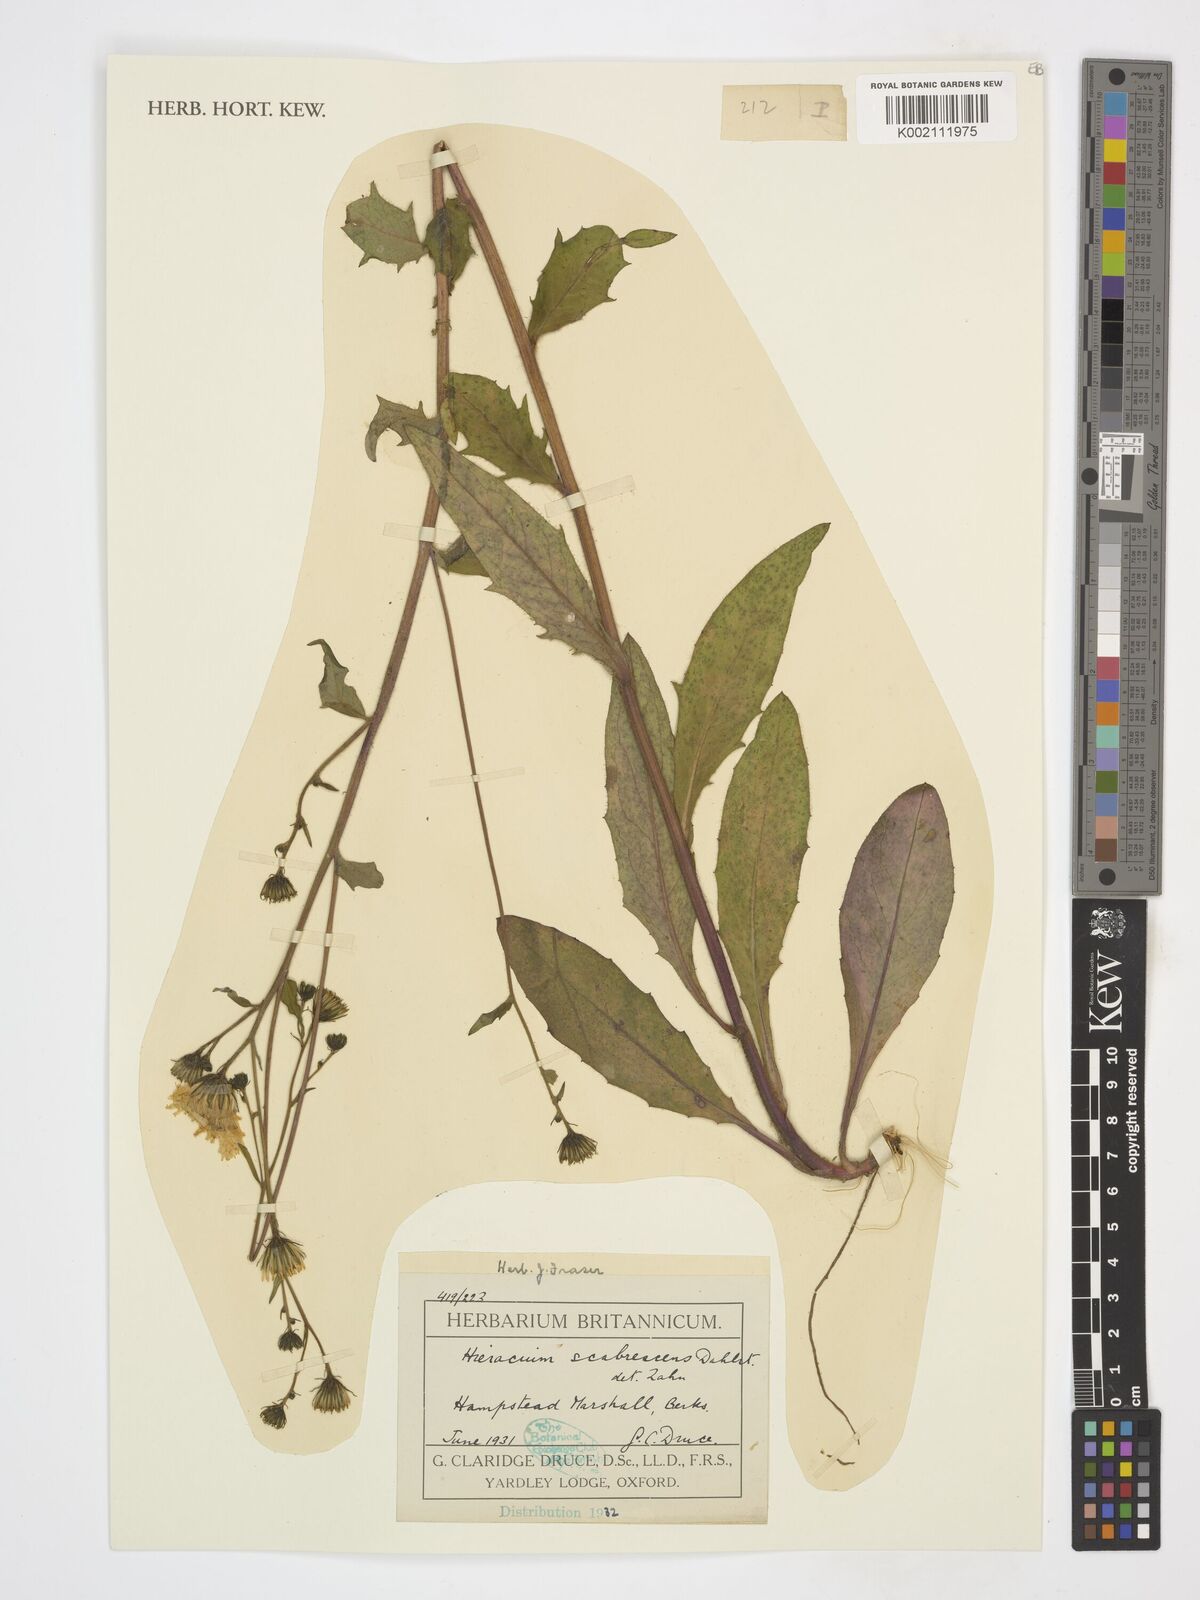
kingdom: Plantae
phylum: Tracheophyta
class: Magnoliopsida
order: Asterales
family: Asteraceae
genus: Hieracium
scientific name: Hieracium scabrescens
